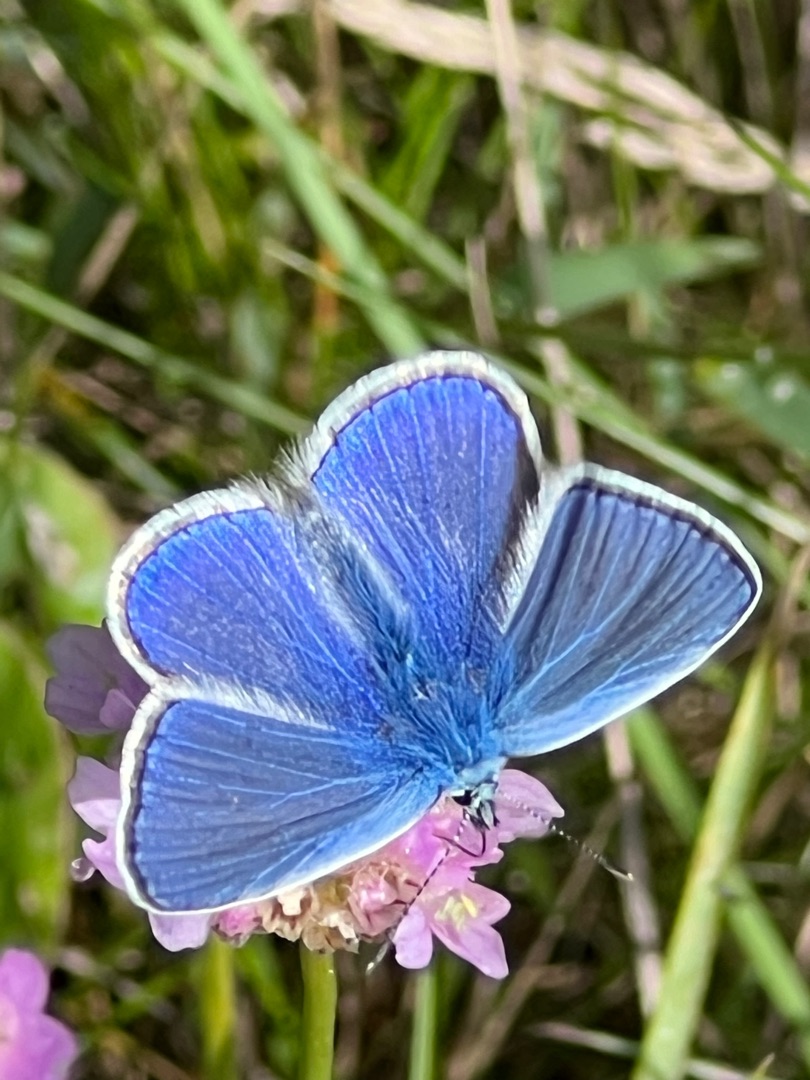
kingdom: Animalia
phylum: Arthropoda
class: Insecta
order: Lepidoptera
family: Lycaenidae
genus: Polyommatus
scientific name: Polyommatus icarus
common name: Almindelig blåfugl
